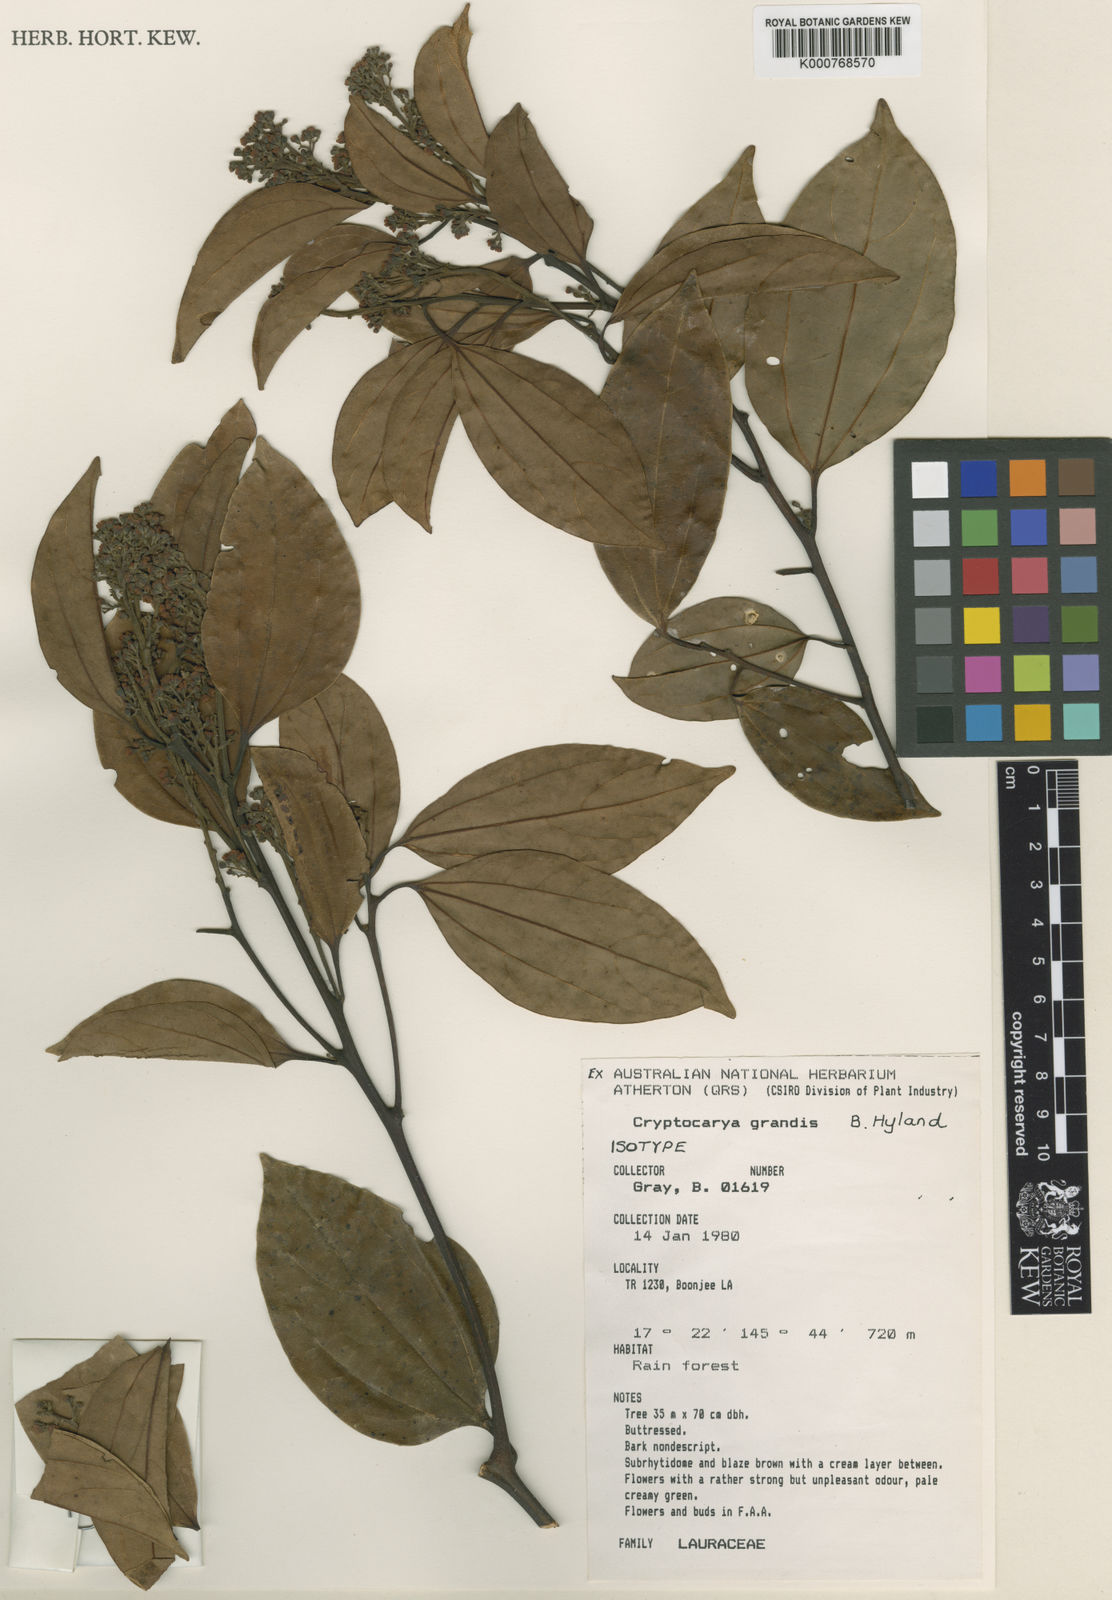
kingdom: Plantae
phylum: Tracheophyta
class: Magnoliopsida
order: Laurales
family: Lauraceae
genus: Cryptocarya
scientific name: Cryptocarya grandis
